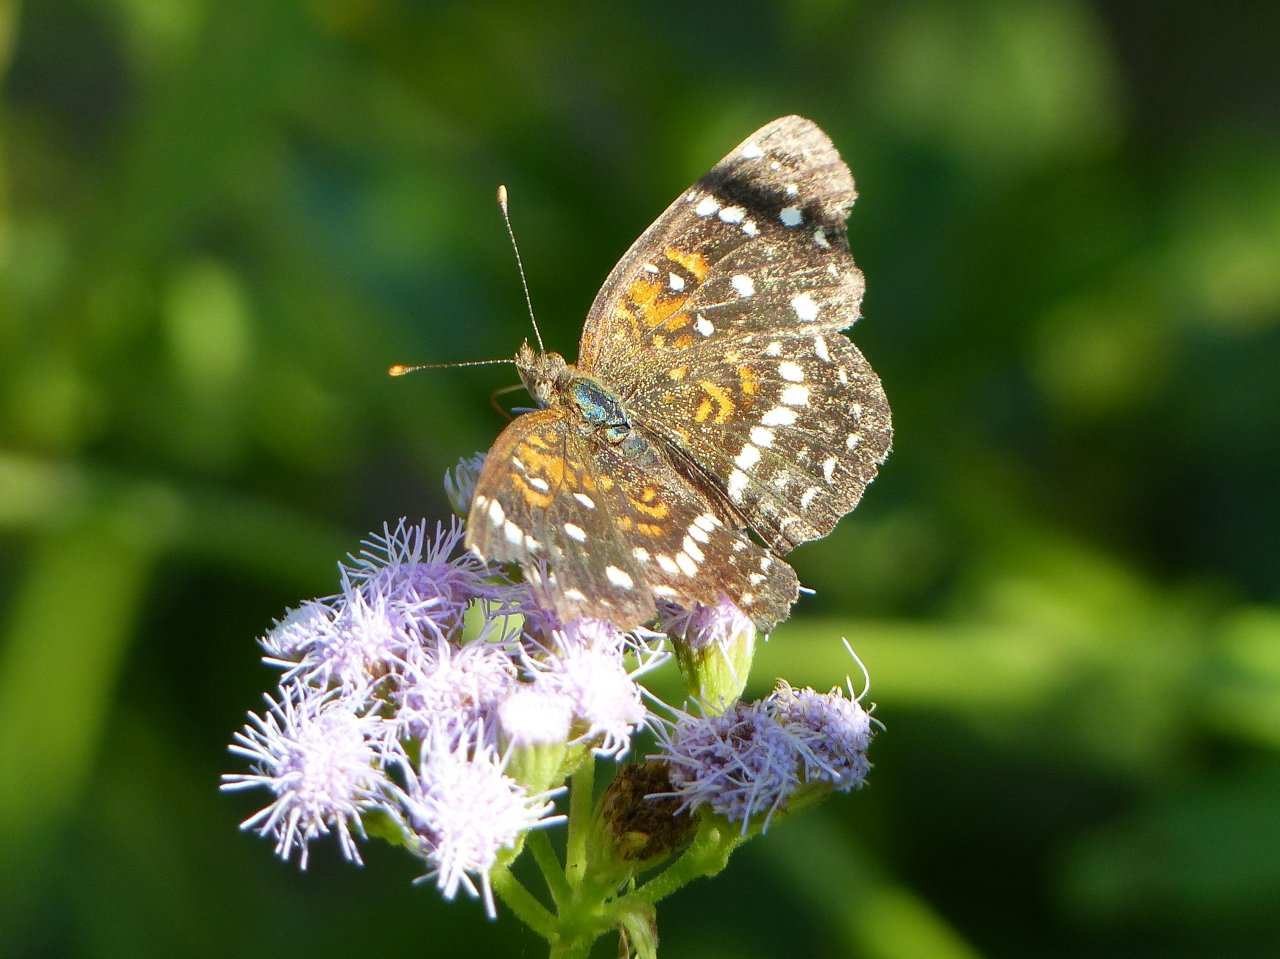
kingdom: Animalia
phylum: Arthropoda
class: Insecta
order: Lepidoptera
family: Nymphalidae
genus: Anthanassa
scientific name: Anthanassa texana
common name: Texan Crescent
